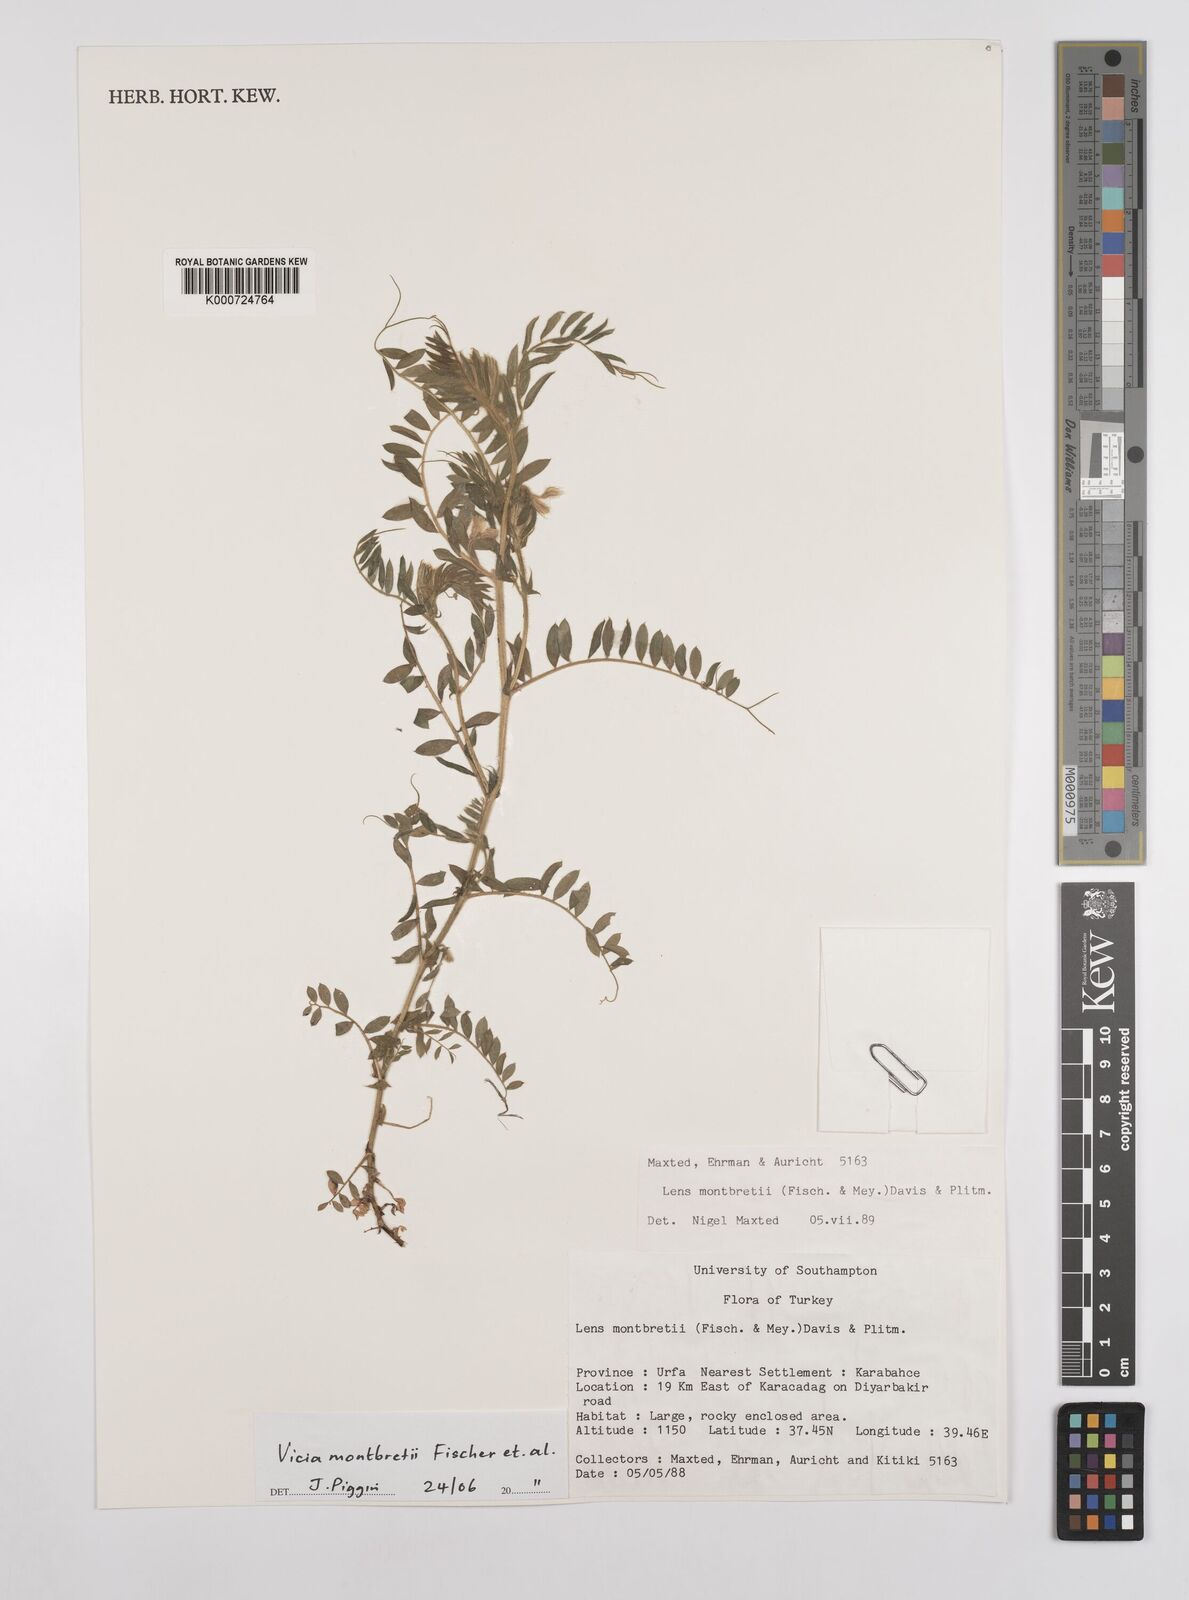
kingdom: Plantae
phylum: Tracheophyta
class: Magnoliopsida
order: Fabales
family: Fabaceae
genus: Vicia
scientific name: Vicia montbretii
